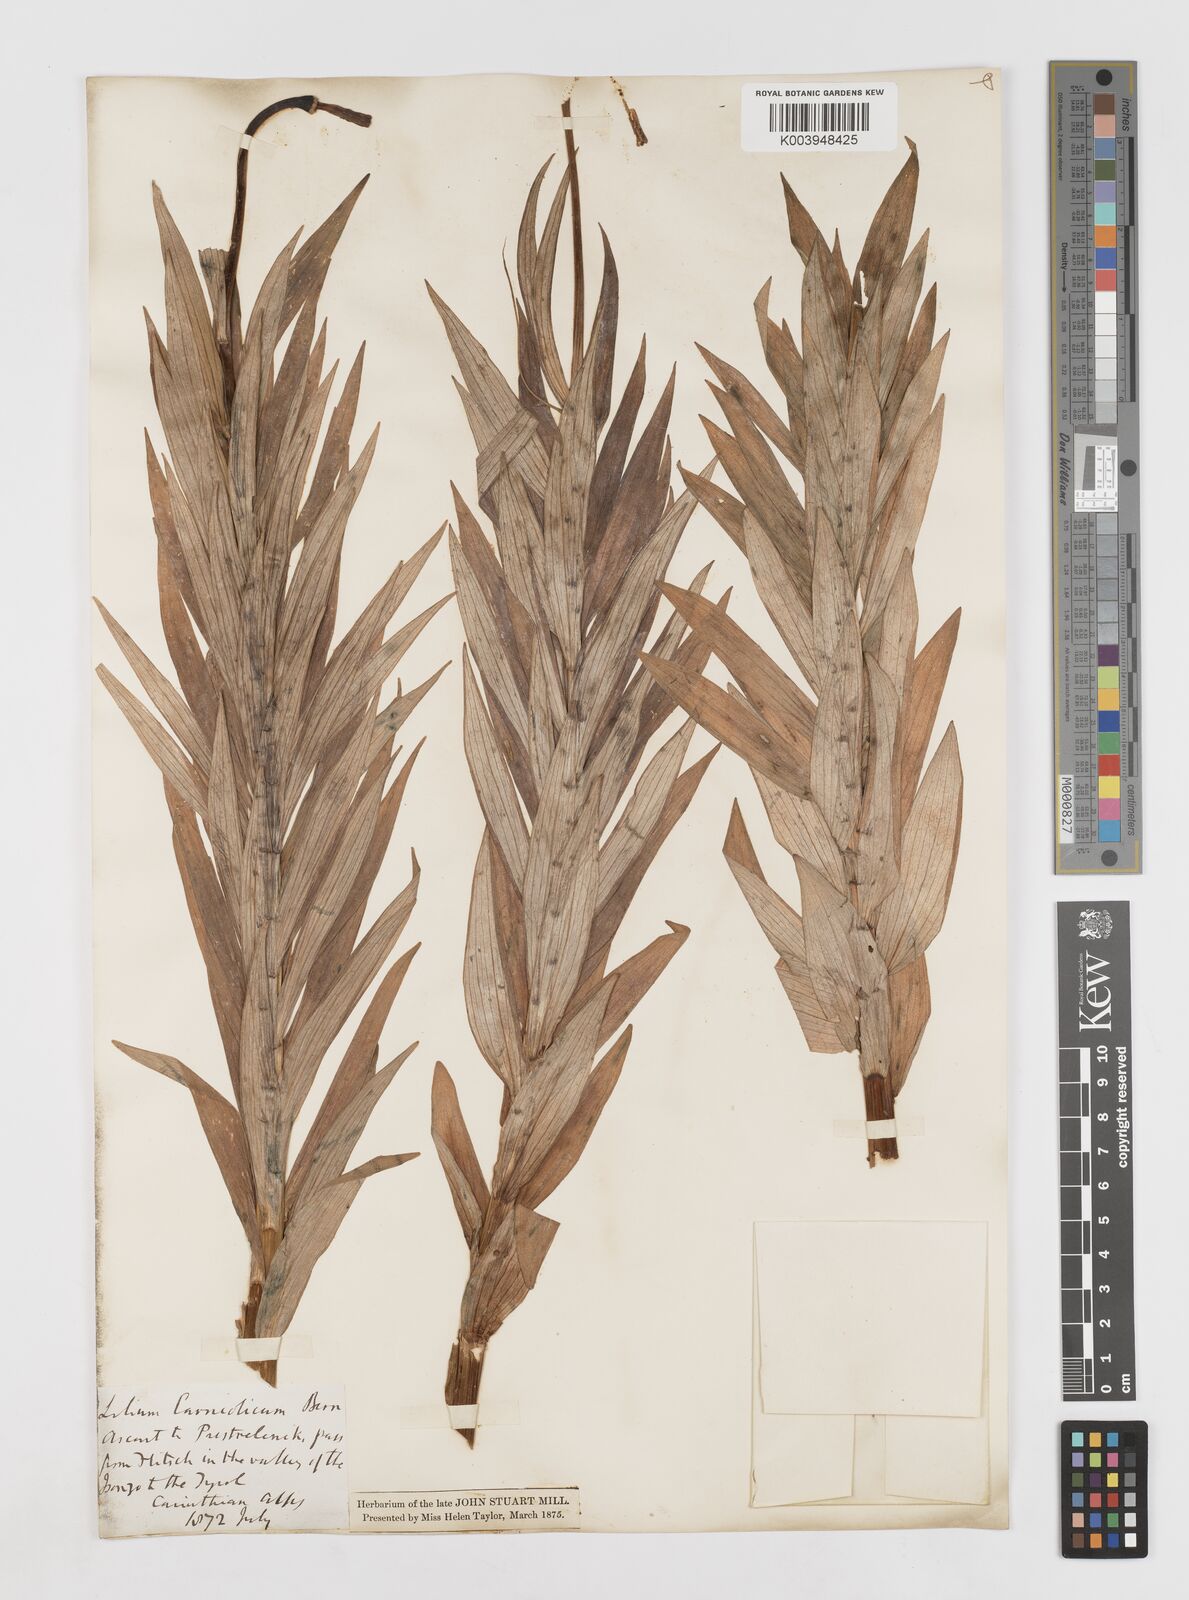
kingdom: Plantae
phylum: Tracheophyta
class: Liliopsida
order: Liliales
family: Liliaceae
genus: Lilium
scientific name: Lilium carniolicum
